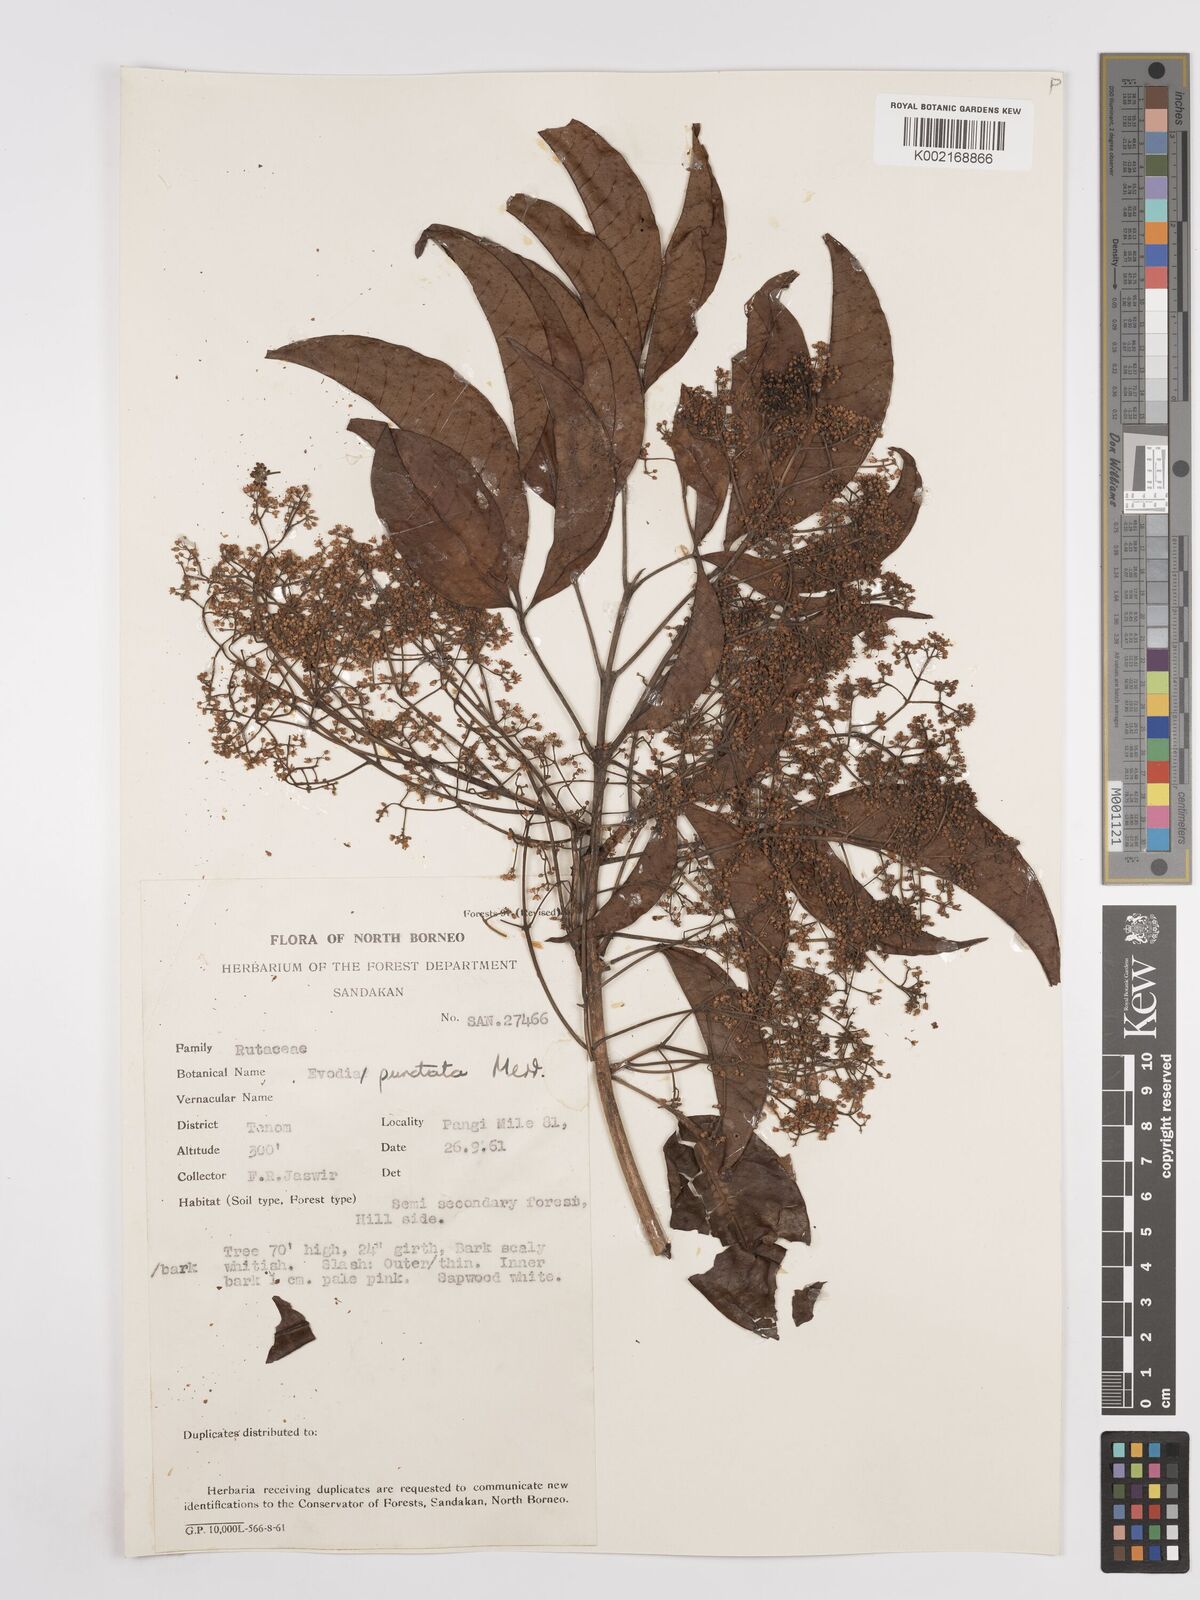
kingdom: Plantae
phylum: Tracheophyta
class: Magnoliopsida
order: Sapindales
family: Rutaceae
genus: Melicope
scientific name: Melicope lunu-ankenda
